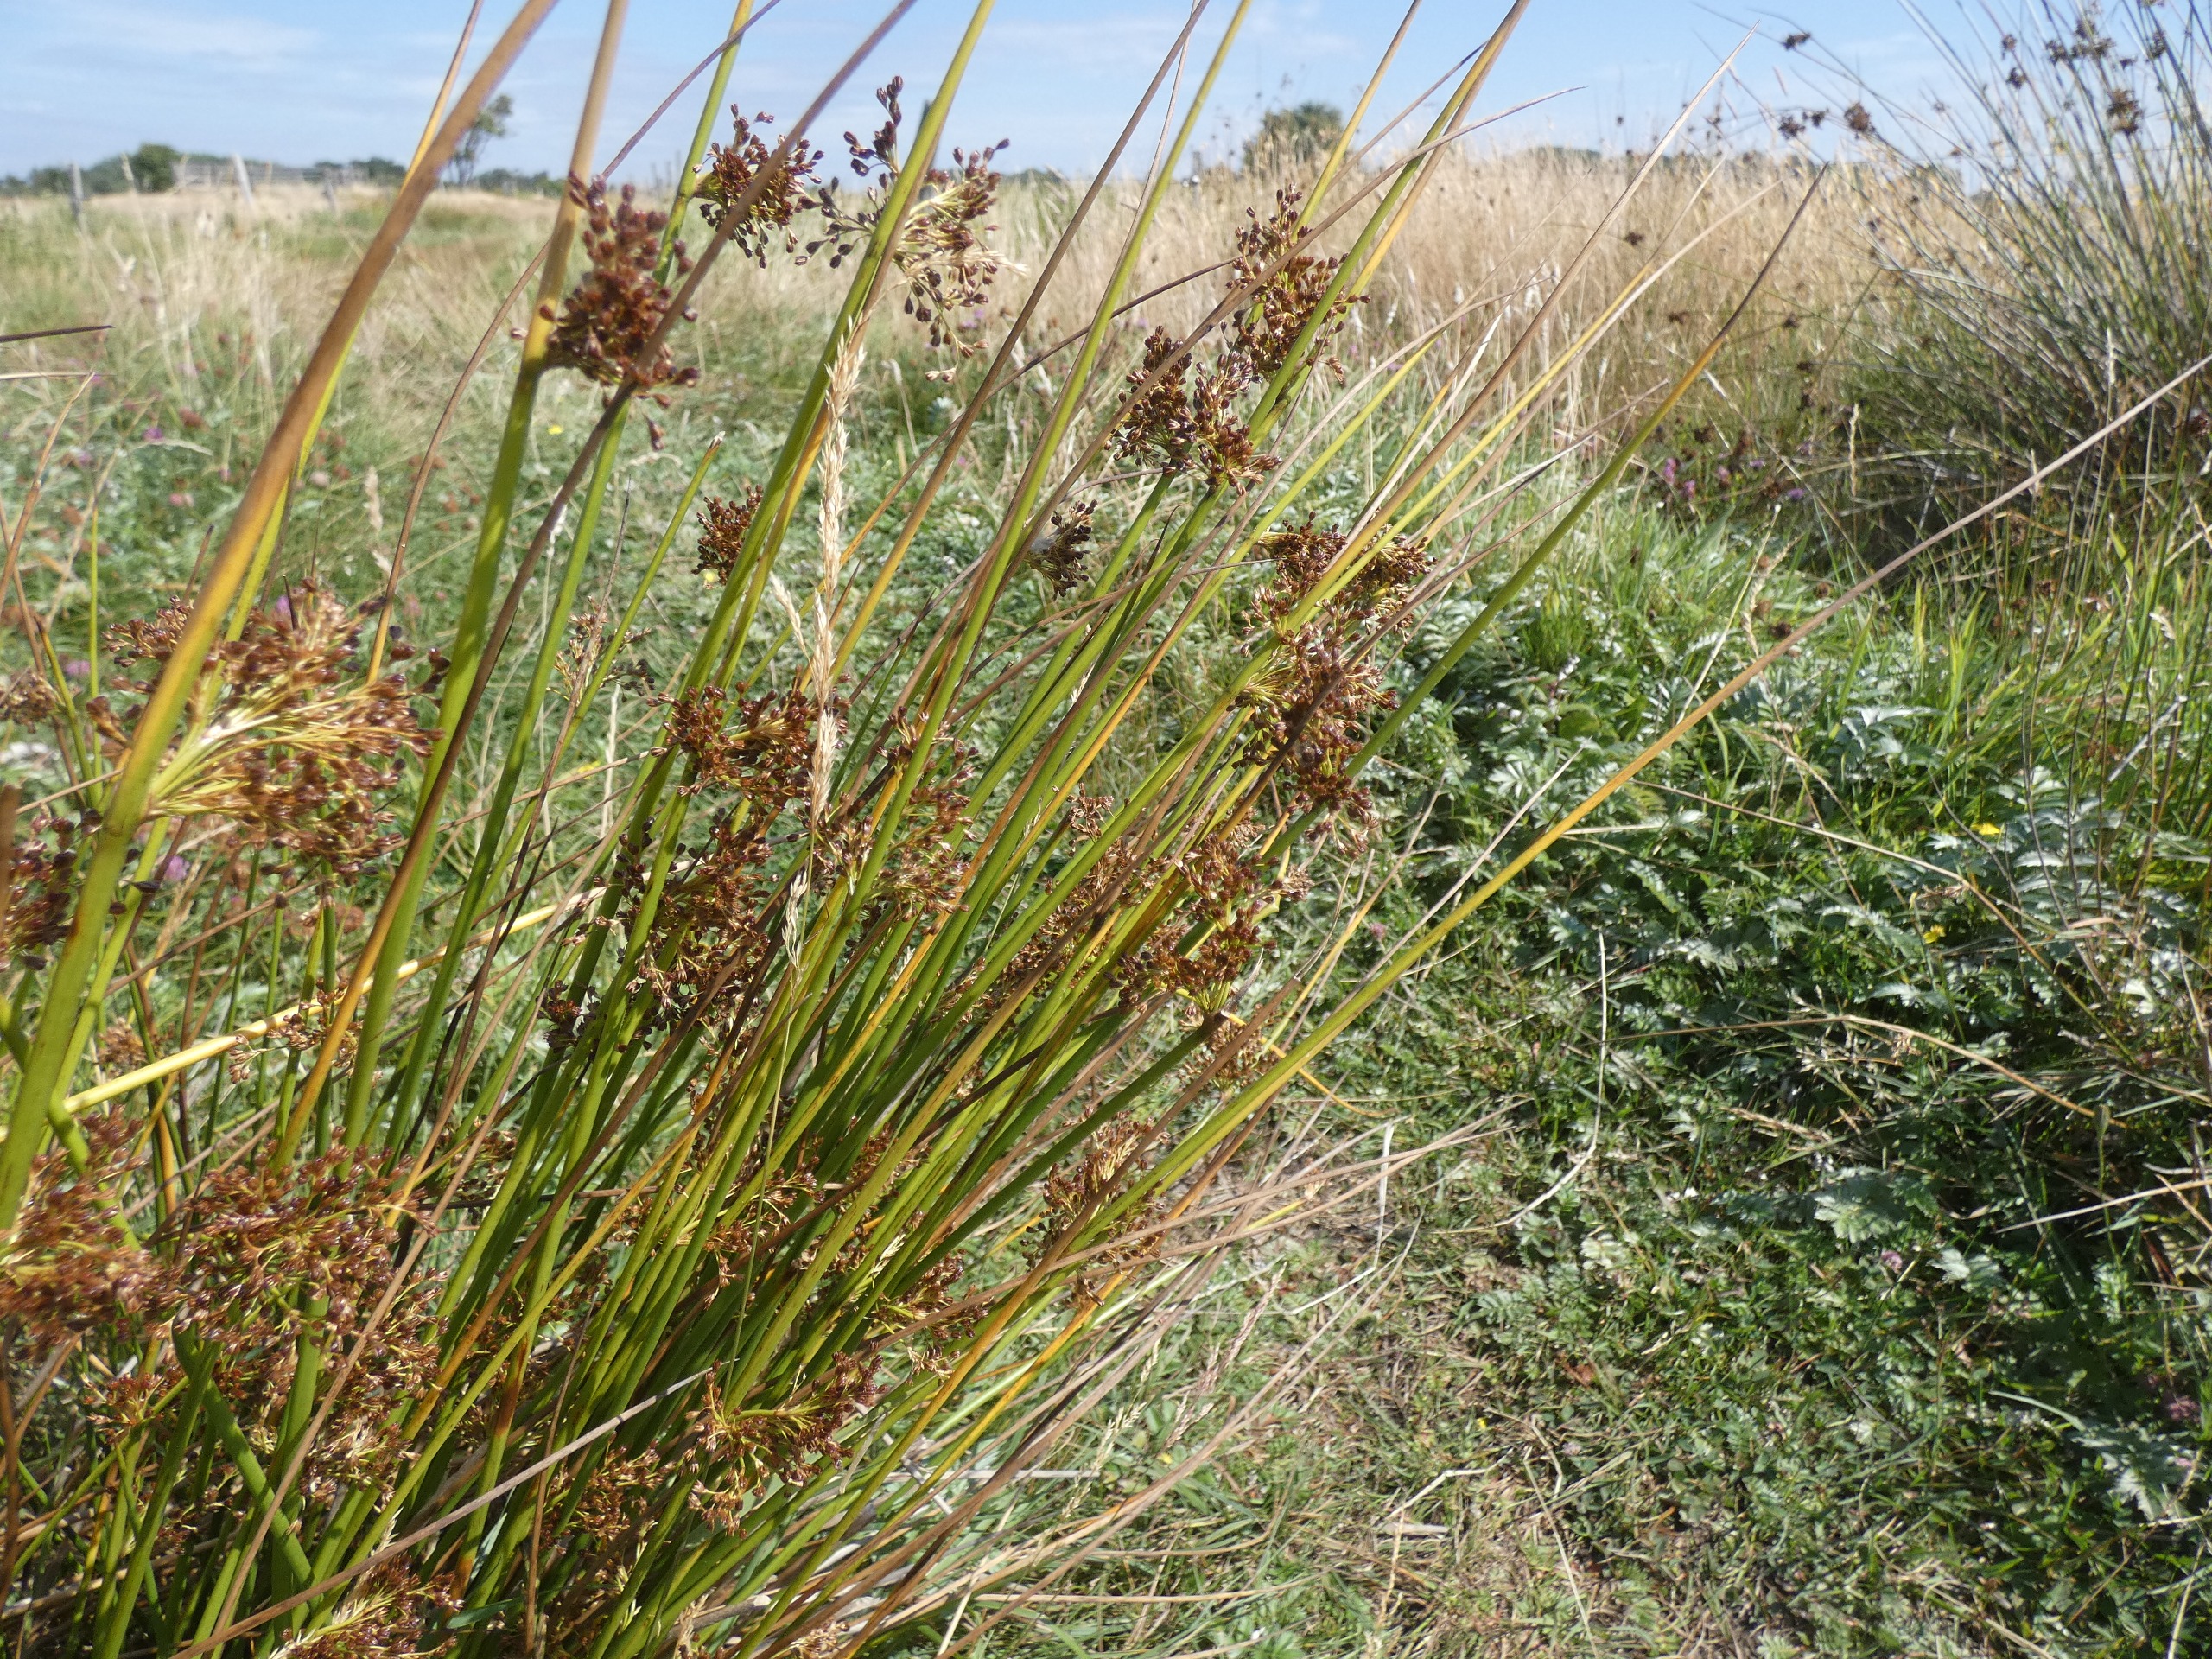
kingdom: Plantae
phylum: Tracheophyta
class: Liliopsida
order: Poales
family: Juncaceae
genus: Juncus
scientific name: Juncus effusus
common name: Lyse-siv
